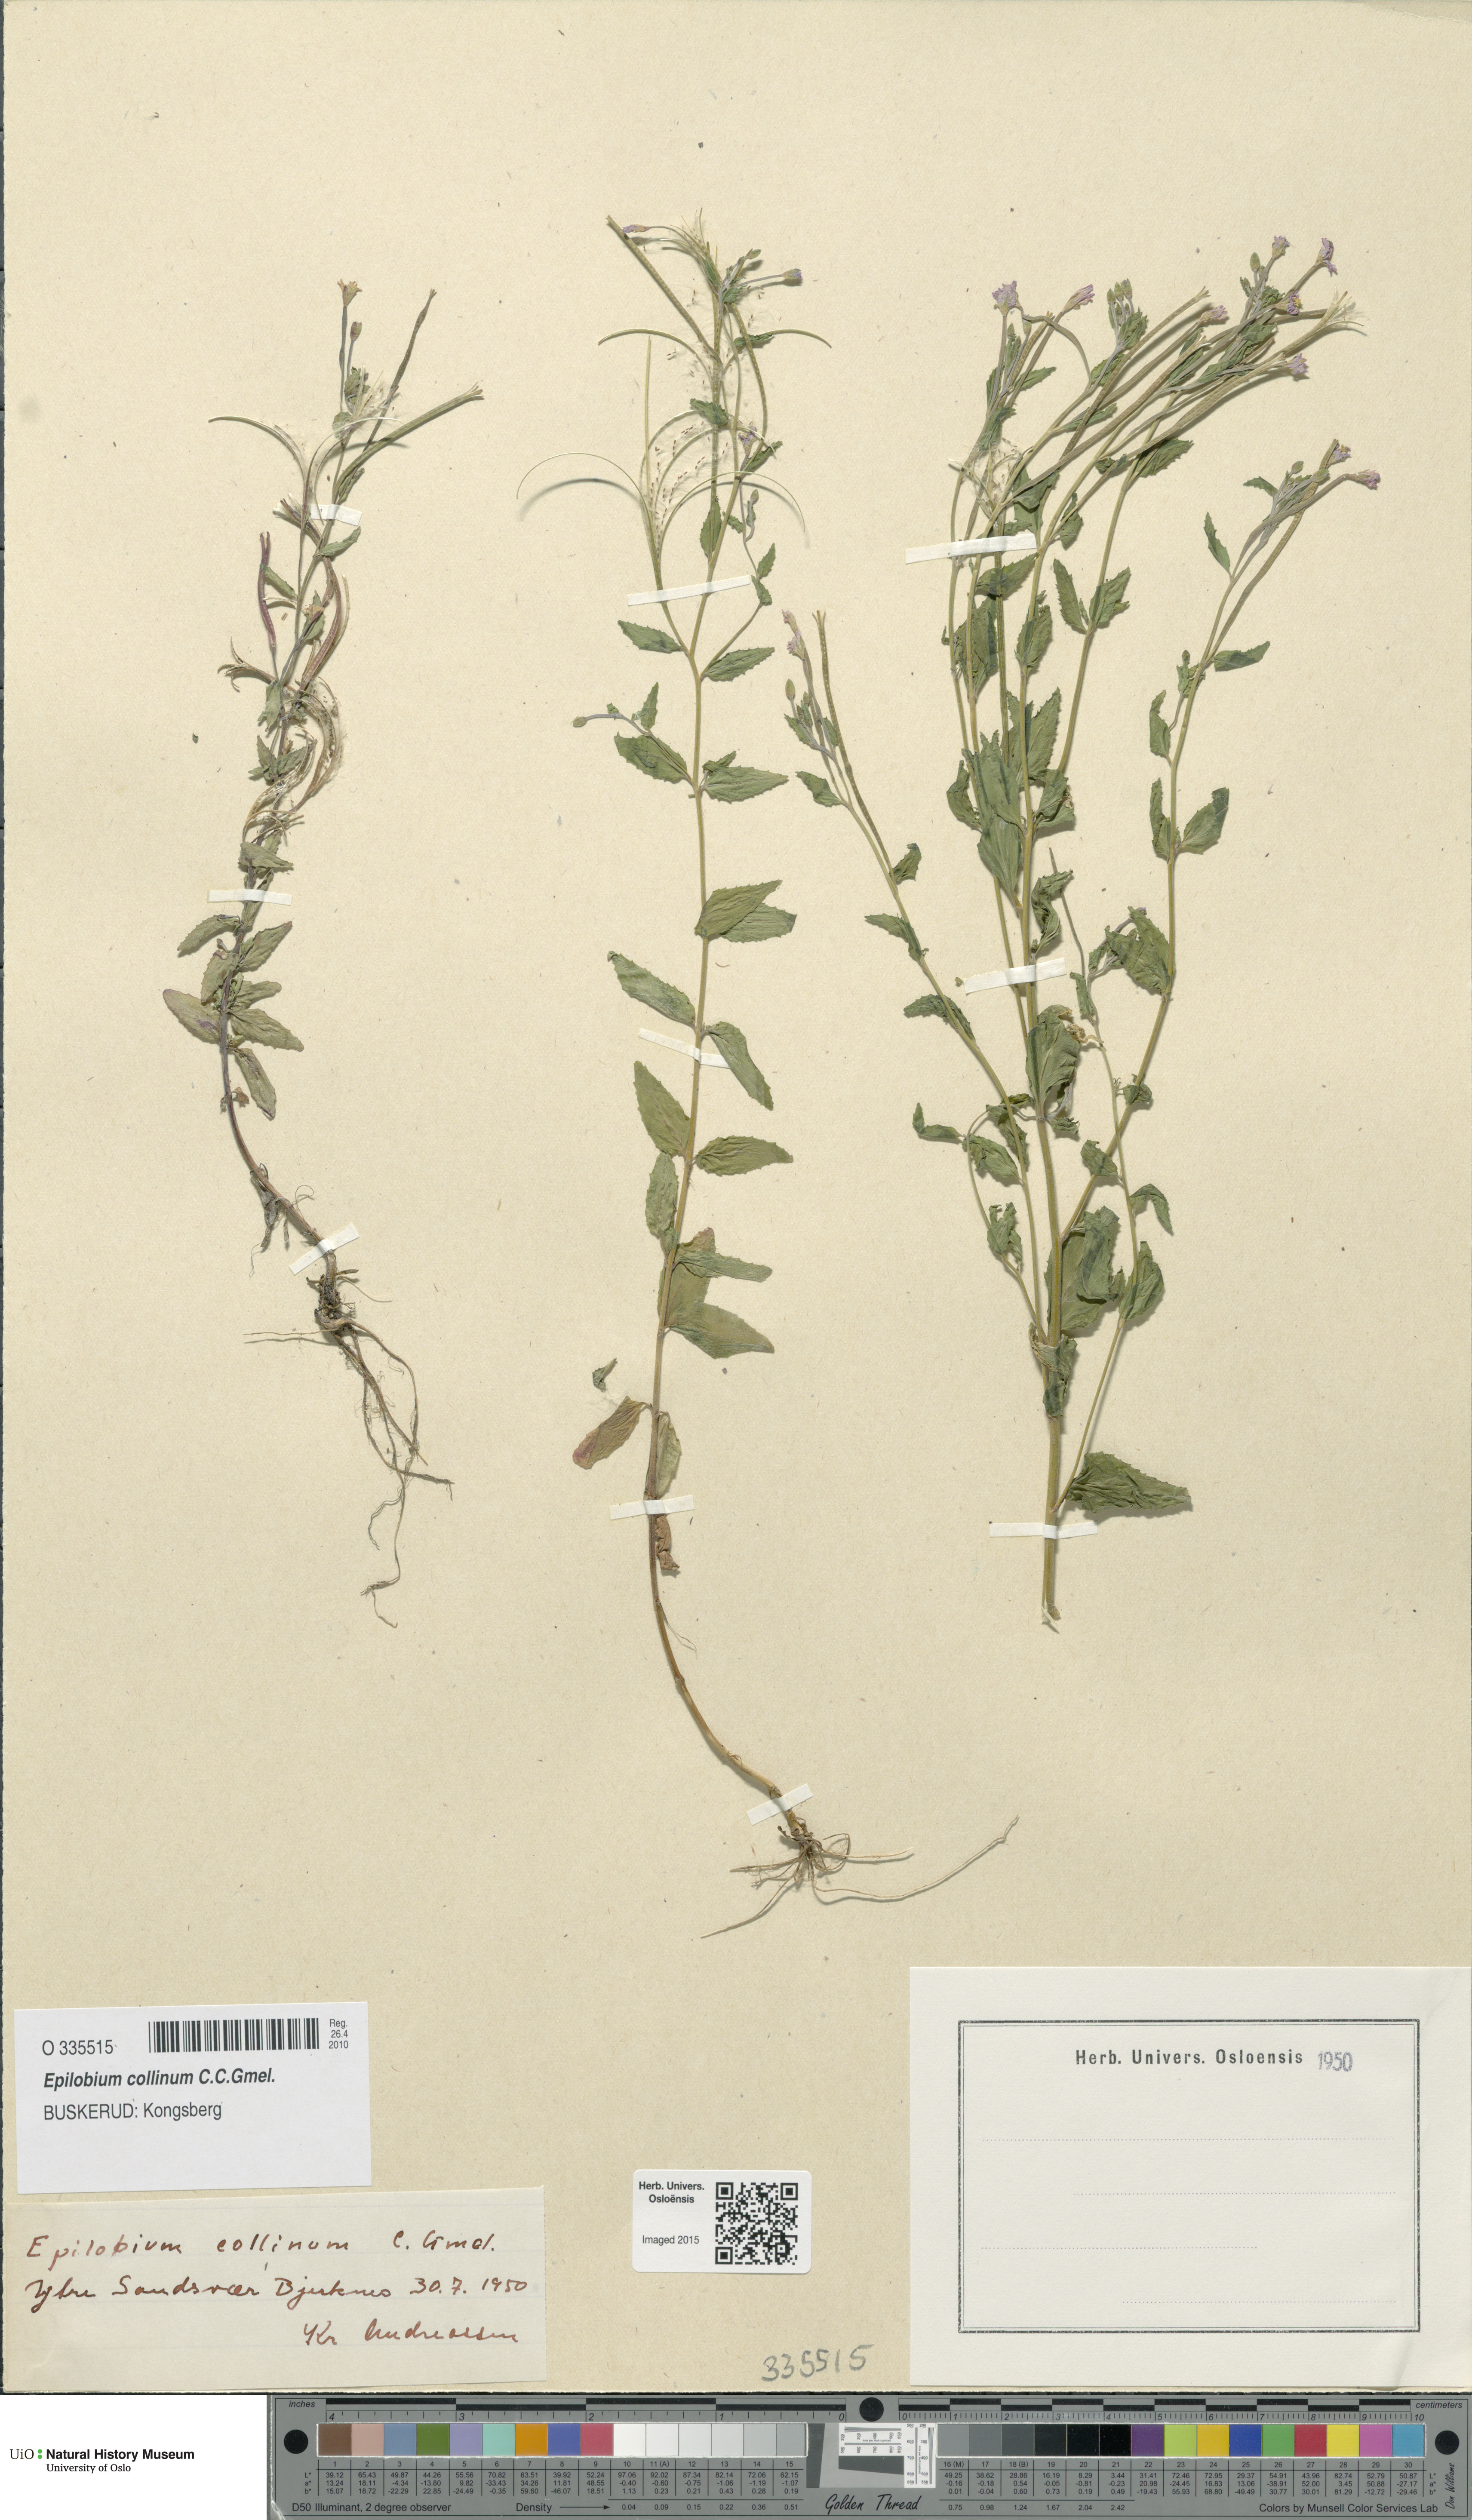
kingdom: Plantae
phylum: Tracheophyta
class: Magnoliopsida
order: Myrtales
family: Onagraceae
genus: Epilobium
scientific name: Epilobium collinum
